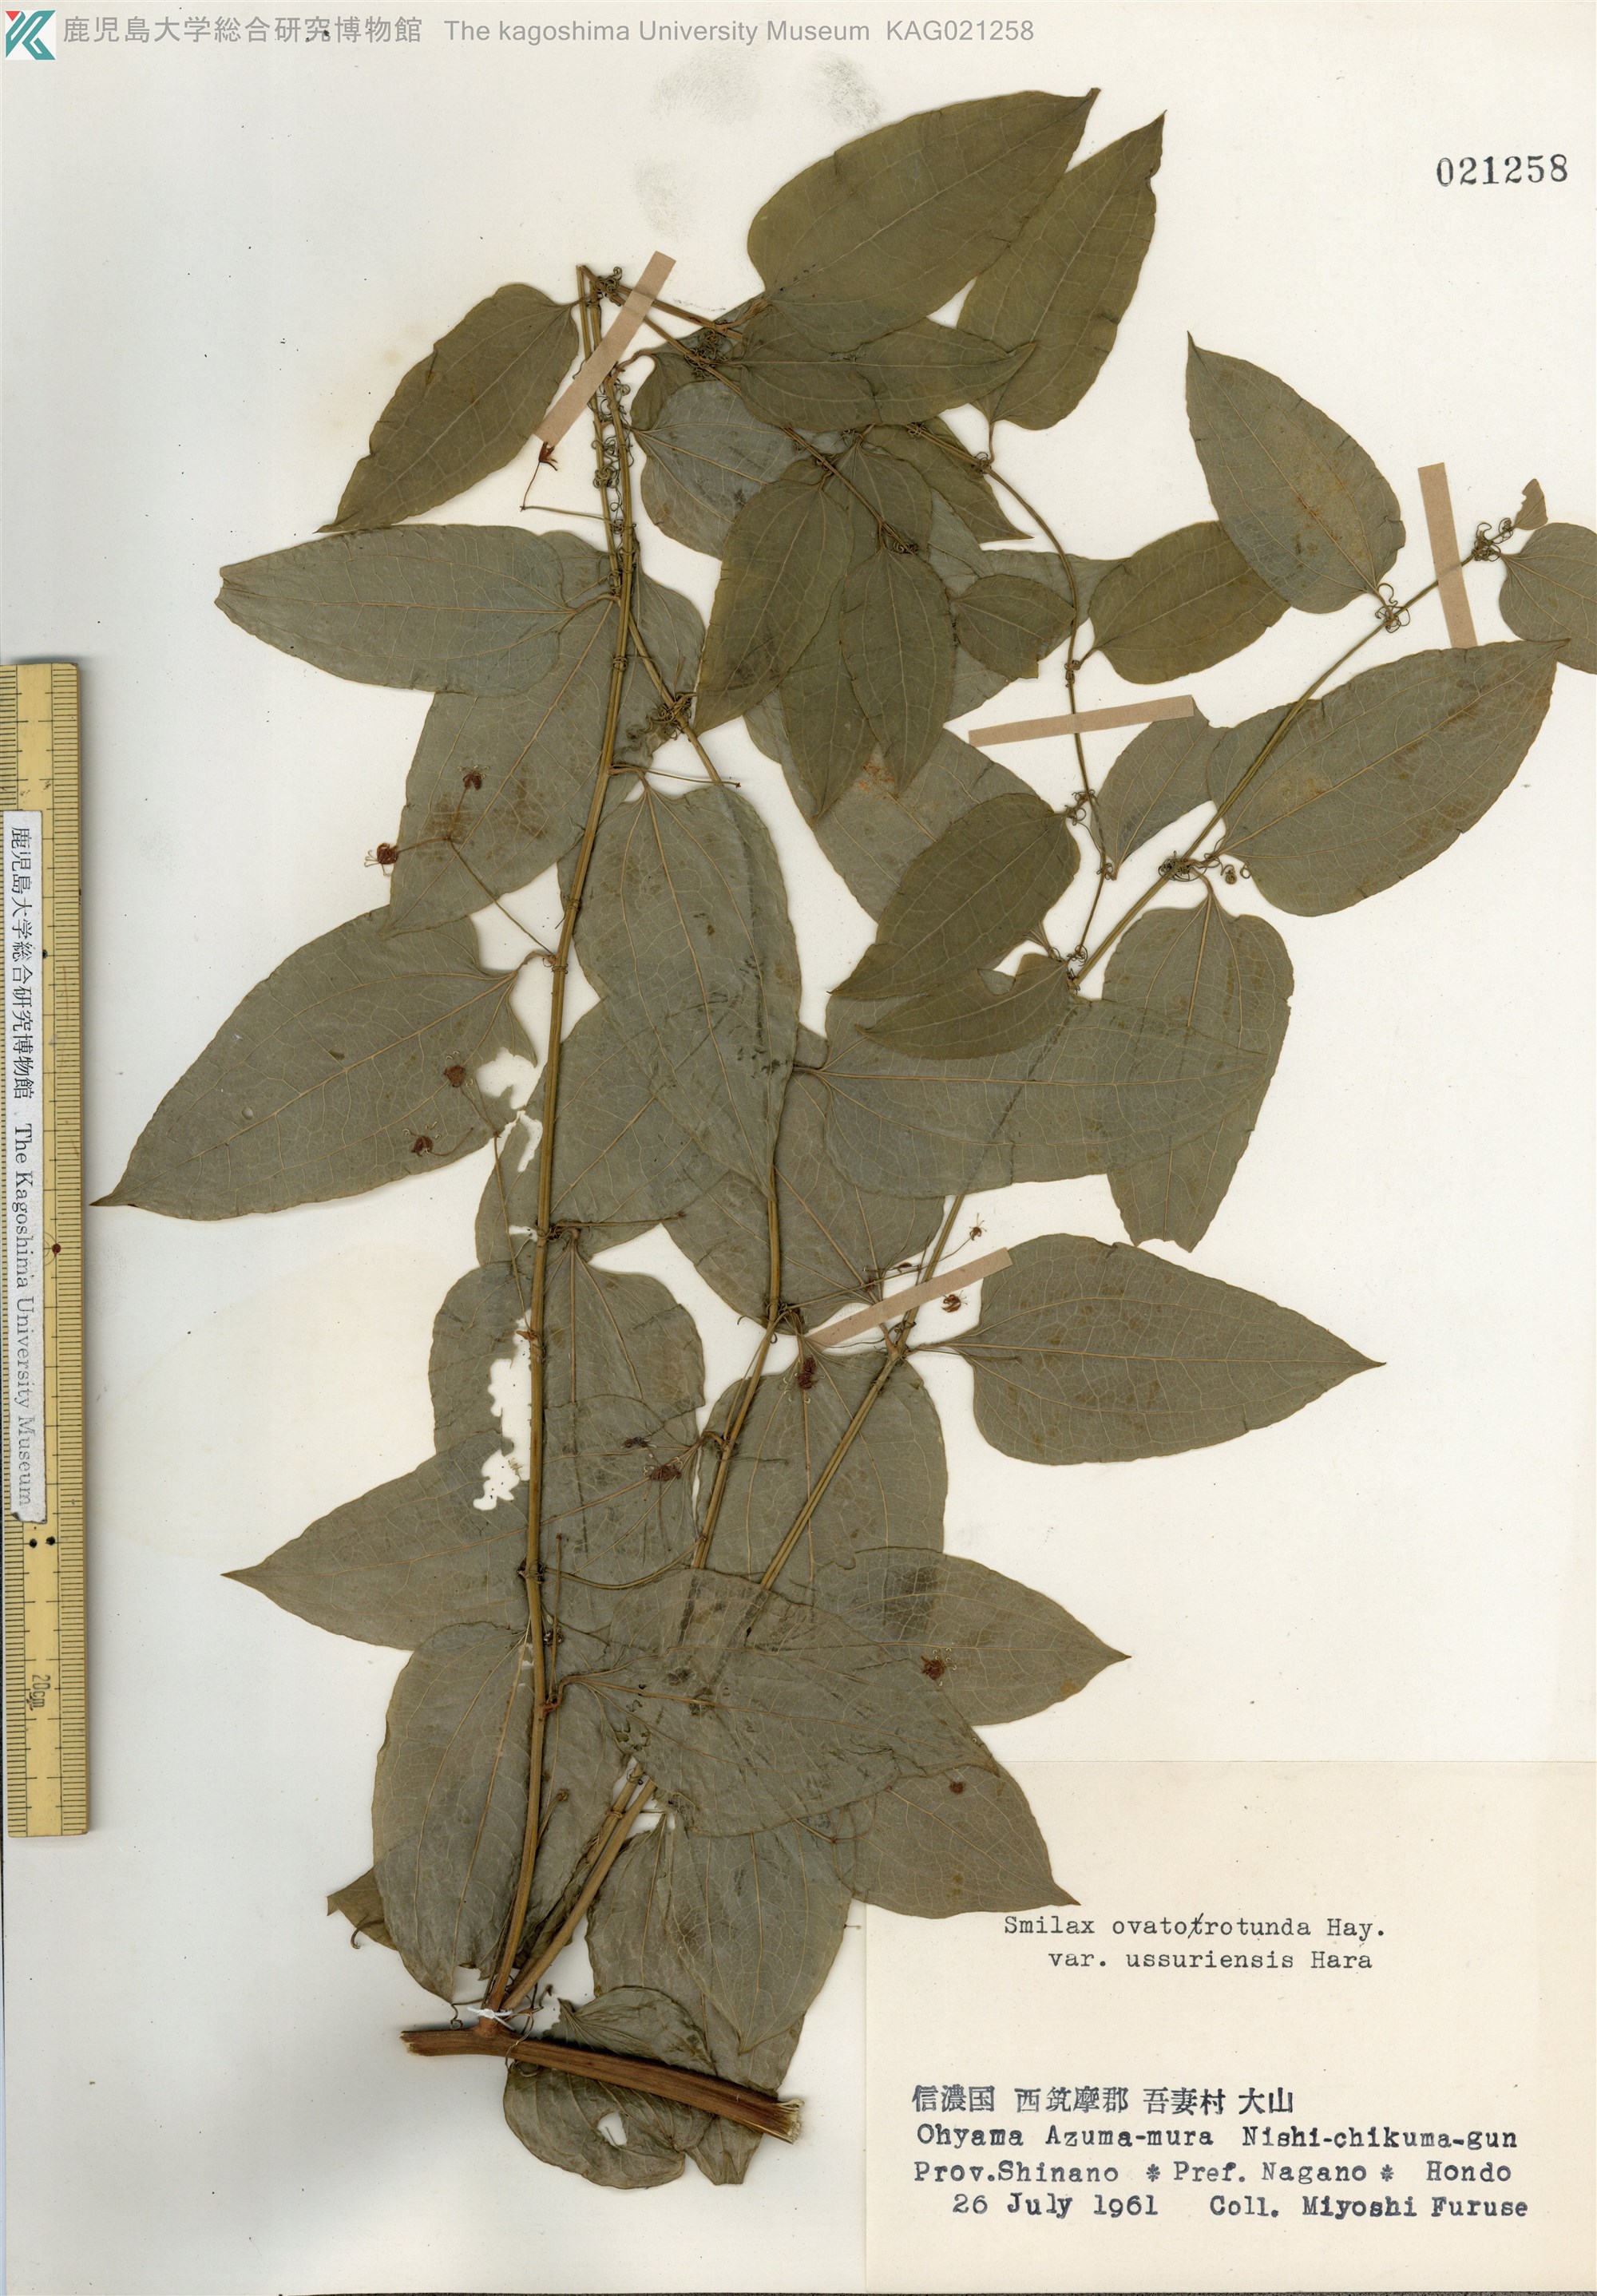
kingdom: Plantae
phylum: Tracheophyta
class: Liliopsida
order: Liliales
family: Smilacaceae
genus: Smilax
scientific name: Smilax riparia
